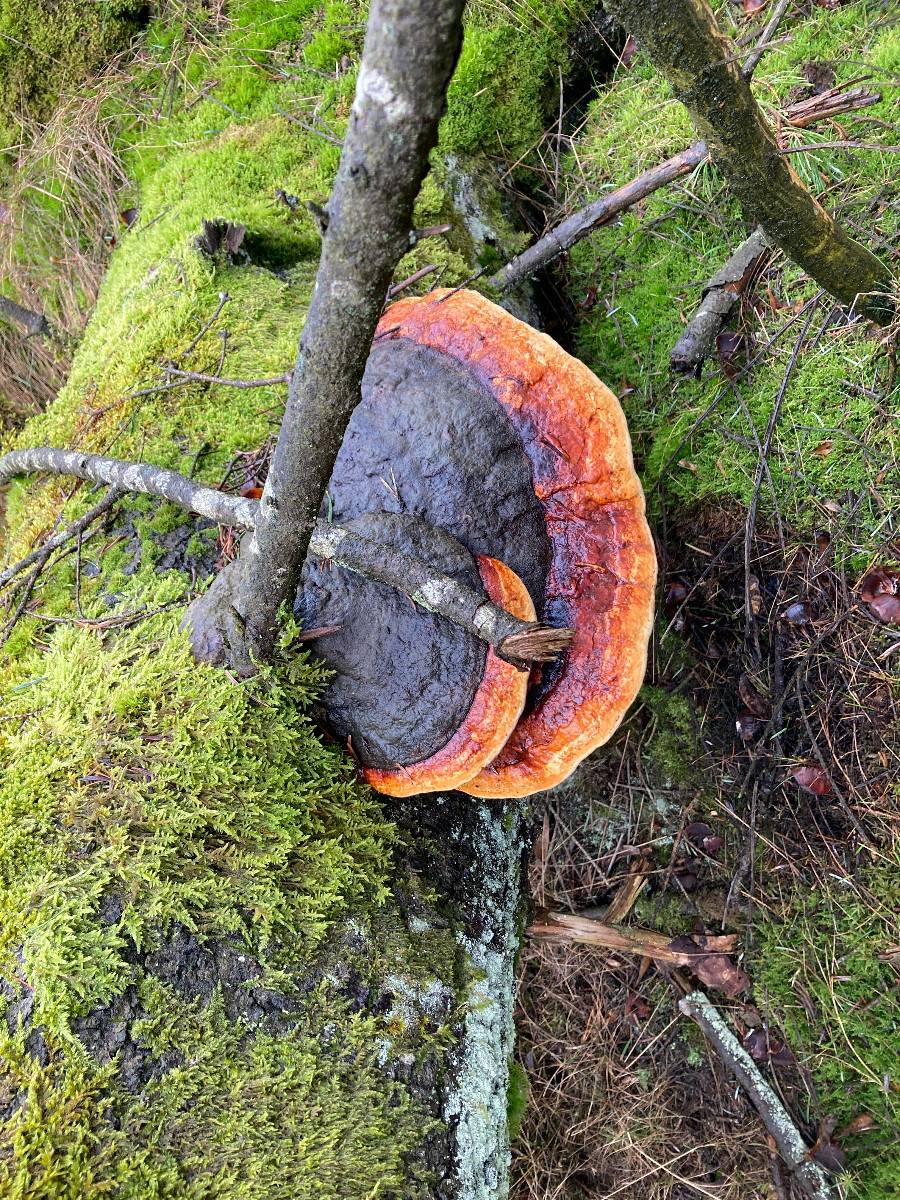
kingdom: Fungi
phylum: Basidiomycota
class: Agaricomycetes
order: Polyporales
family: Fomitopsidaceae
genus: Fomitopsis
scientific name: Fomitopsis pinicola
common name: randbæltet hovporesvamp
